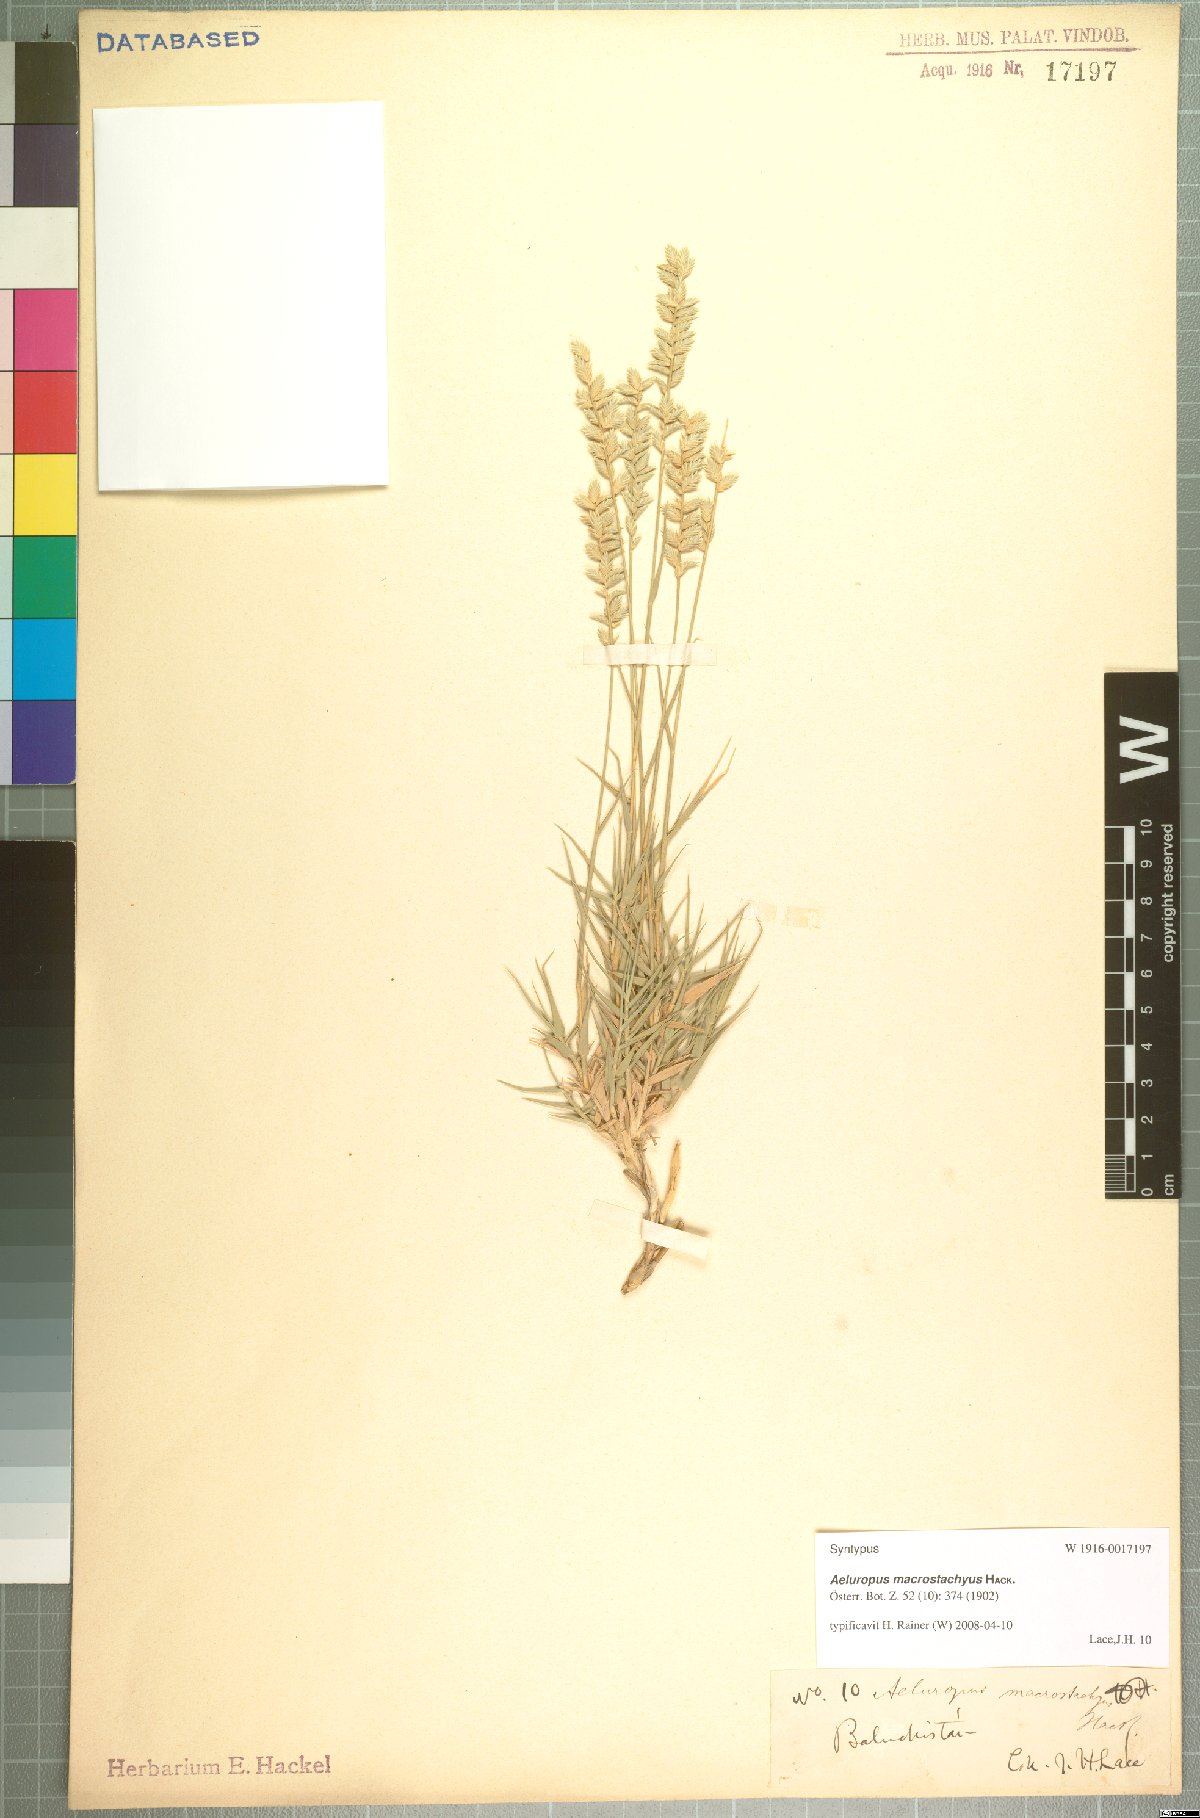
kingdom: Plantae
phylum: Tracheophyta
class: Liliopsida
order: Poales
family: Poaceae
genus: Aeluropus
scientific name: Aeluropus macrostachyus
